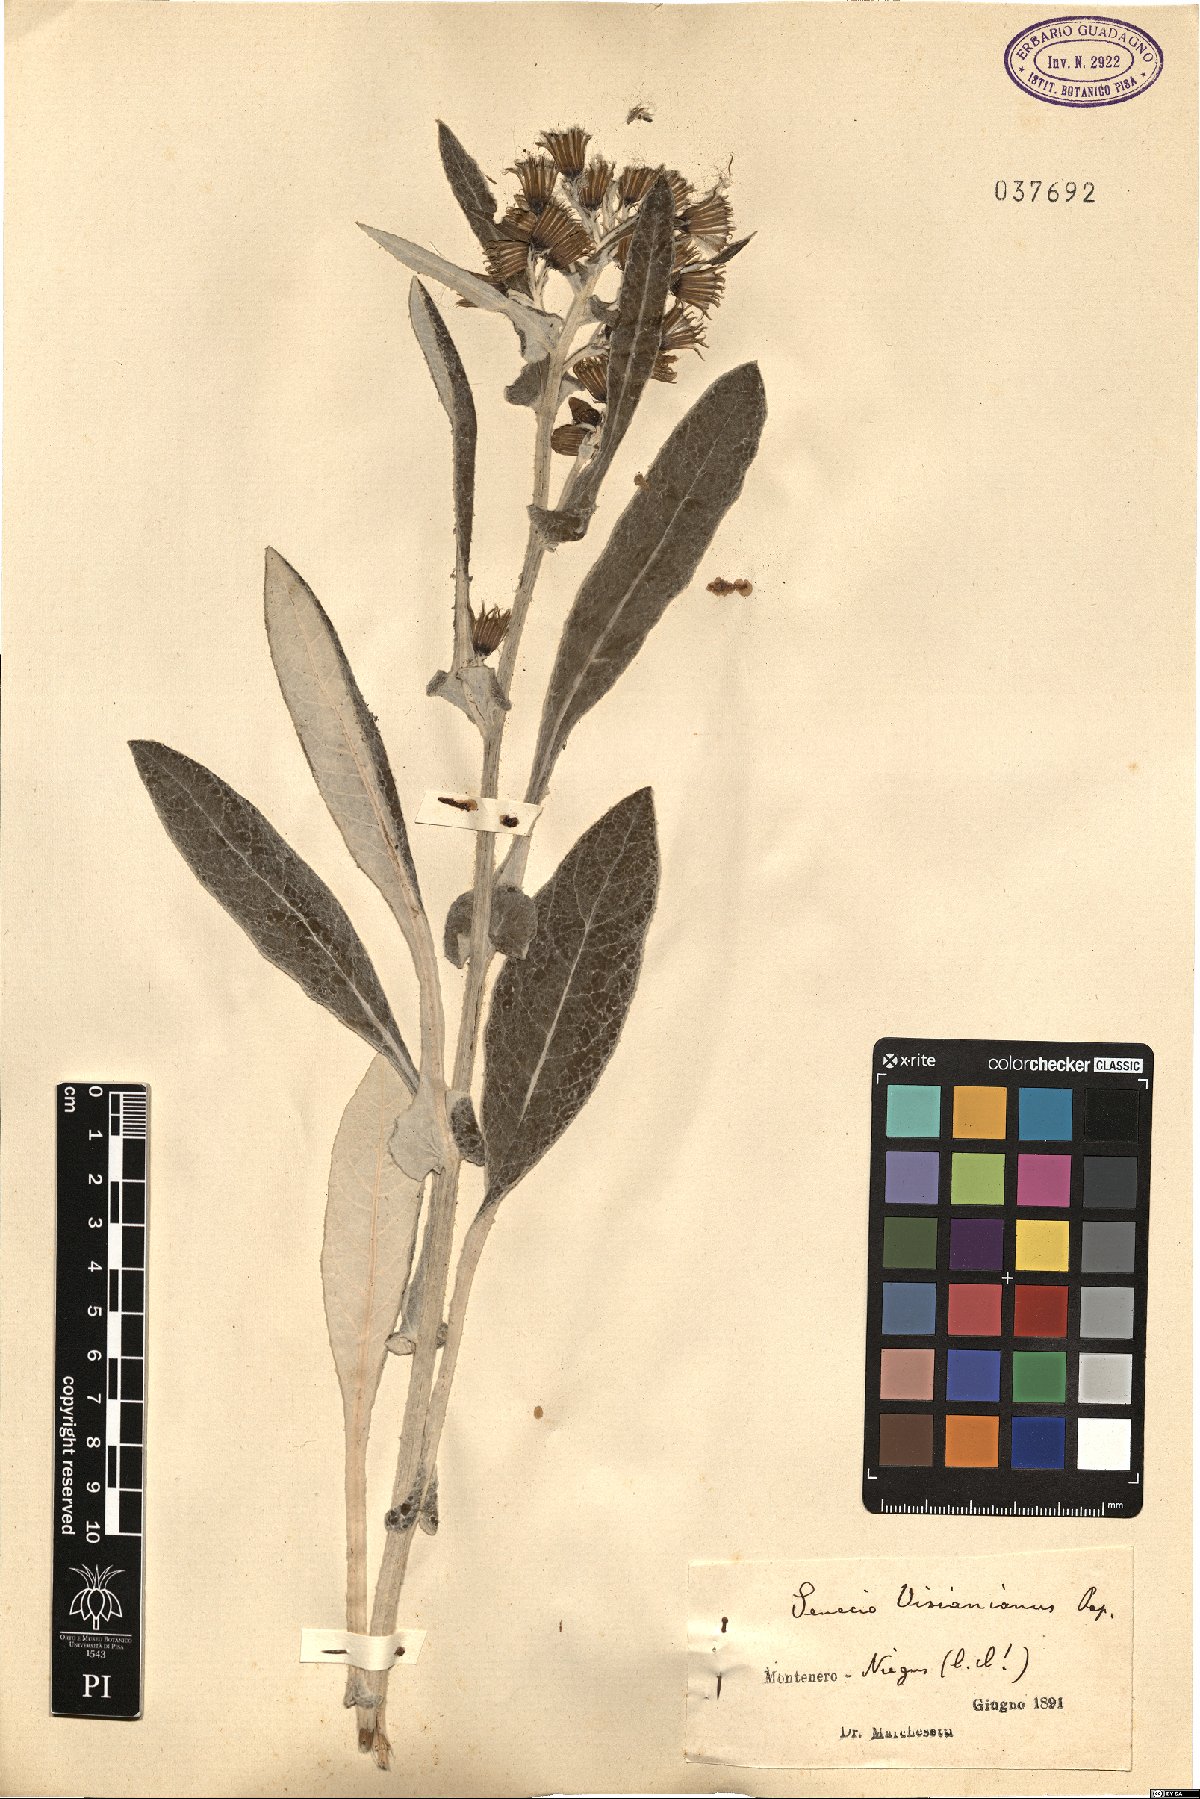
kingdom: Plantae
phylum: Tracheophyta
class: Magnoliopsida
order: Asterales
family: Asteraceae
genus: Senecio
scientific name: Senecio thapsoides
